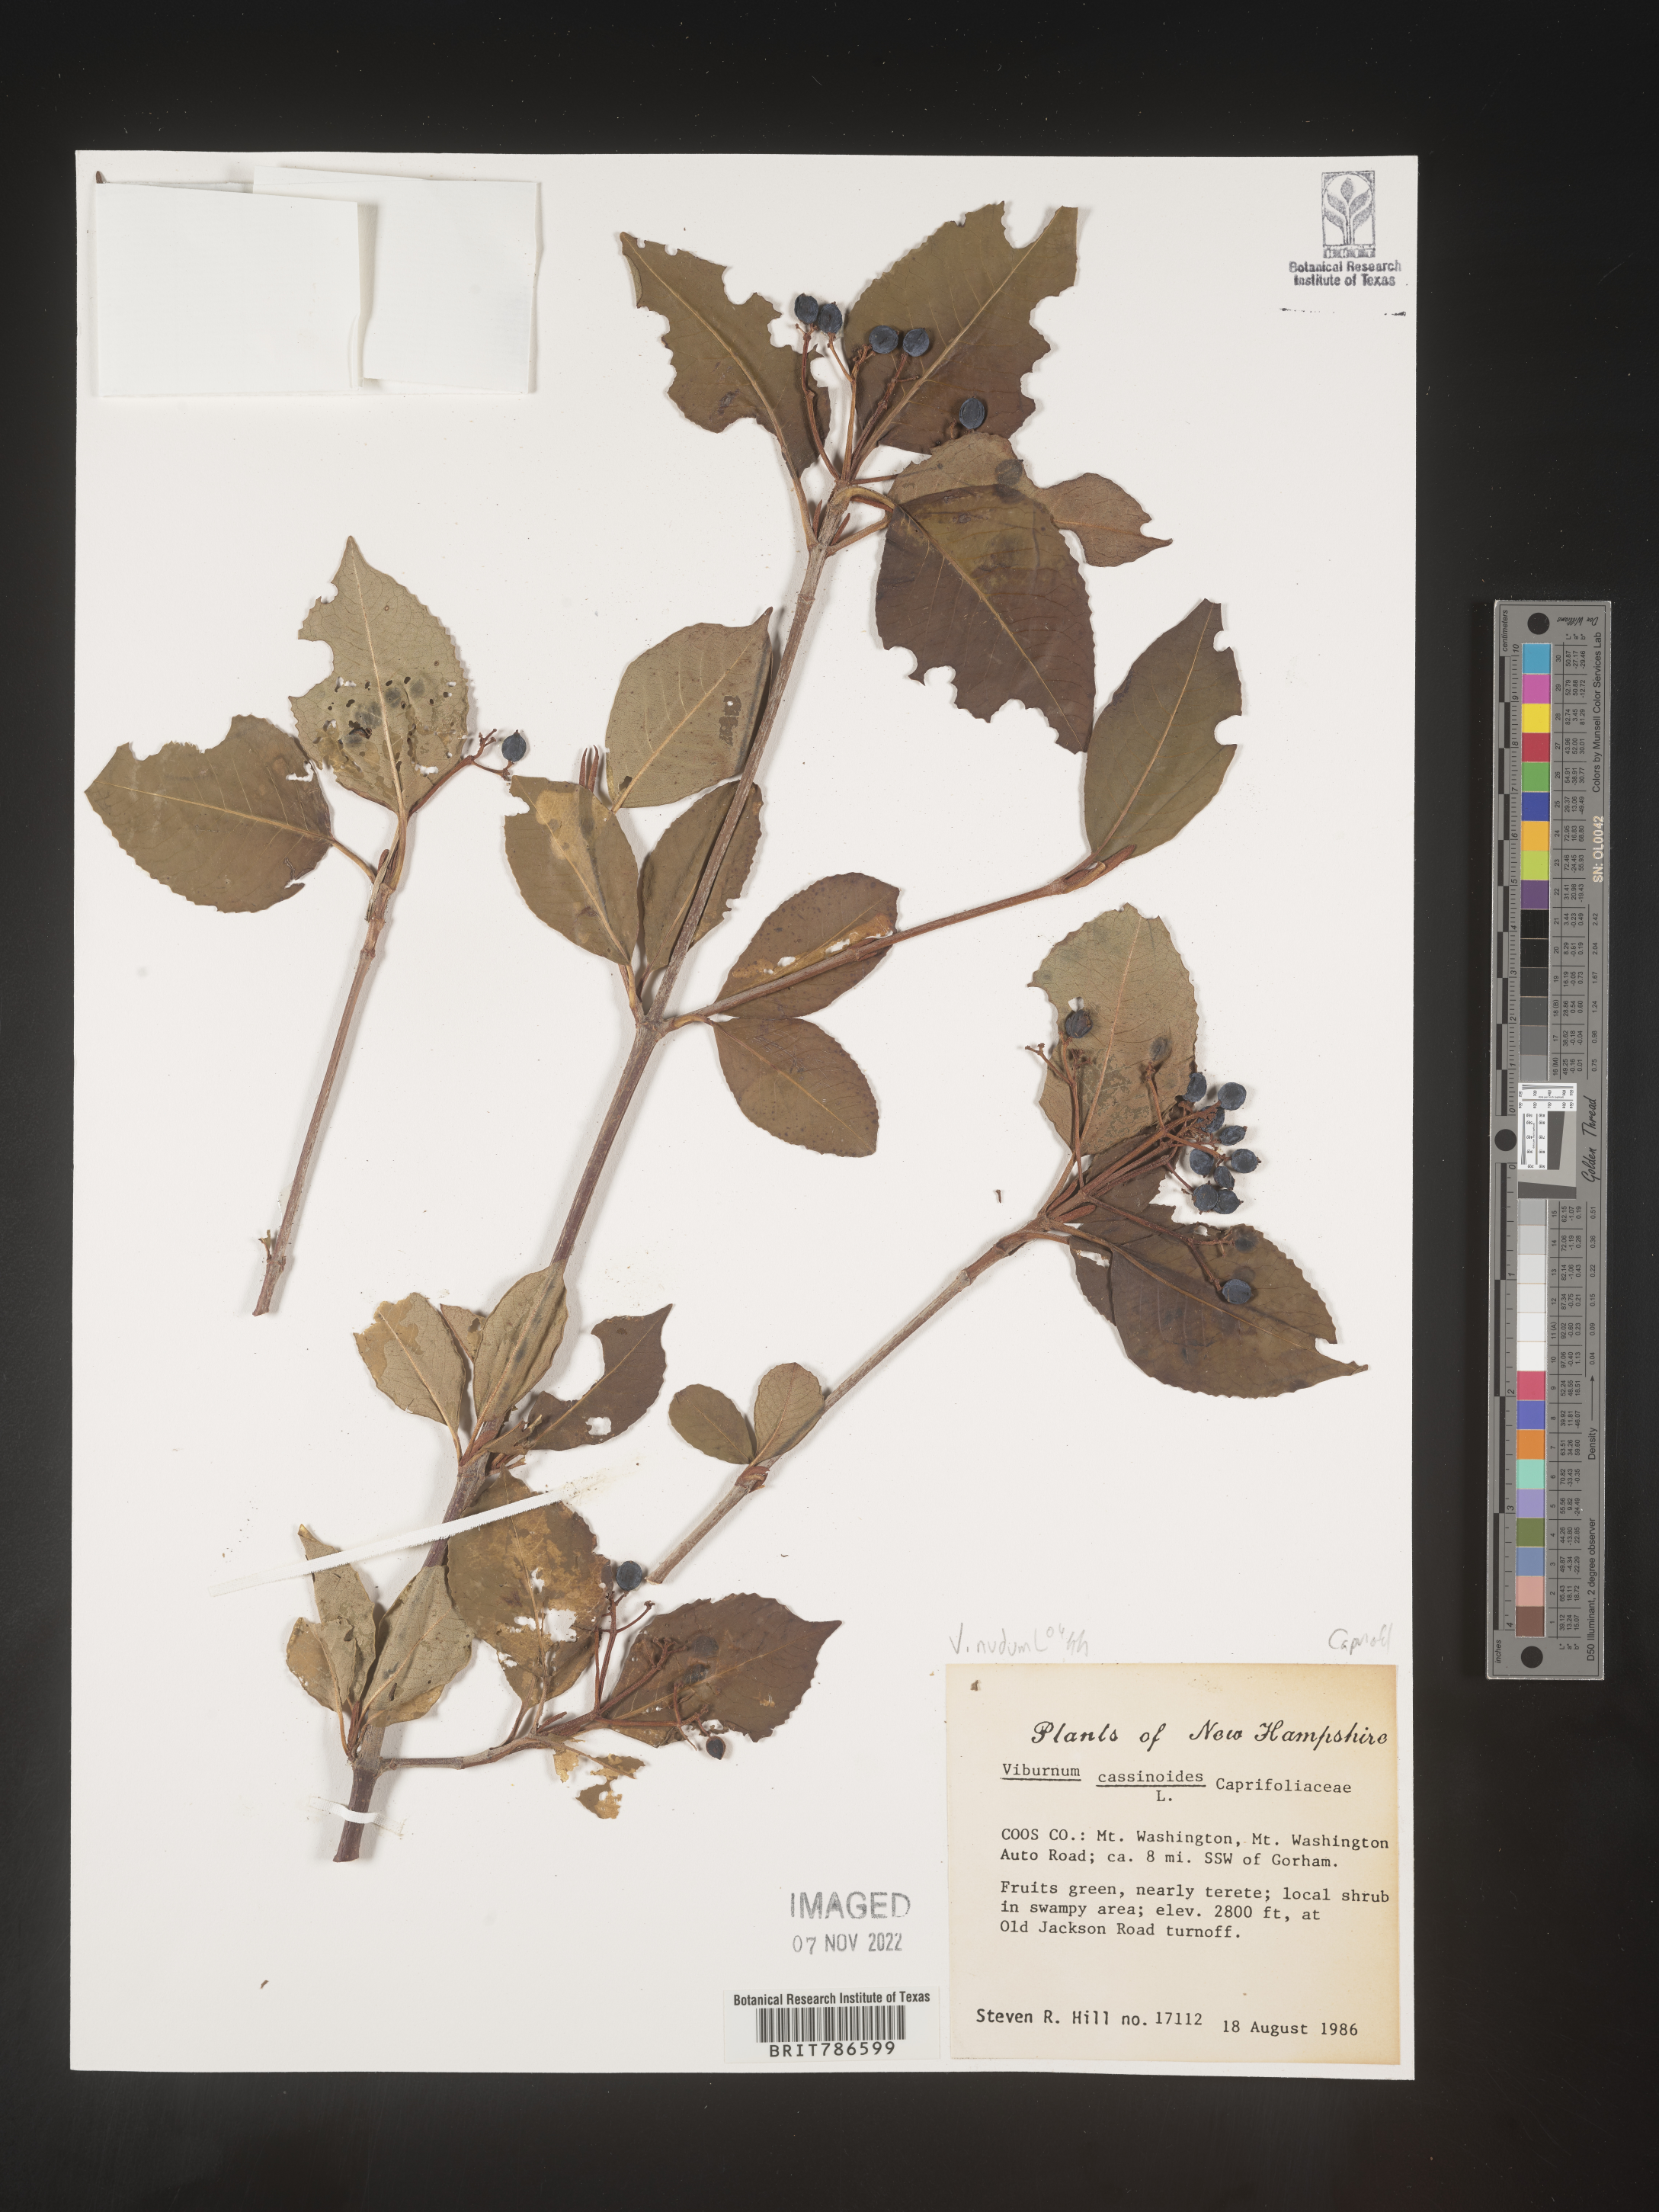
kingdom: Plantae
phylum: Tracheophyta
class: Magnoliopsida
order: Dipsacales
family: Viburnaceae
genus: Viburnum
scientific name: Viburnum cassinoides
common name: Swamp haw
